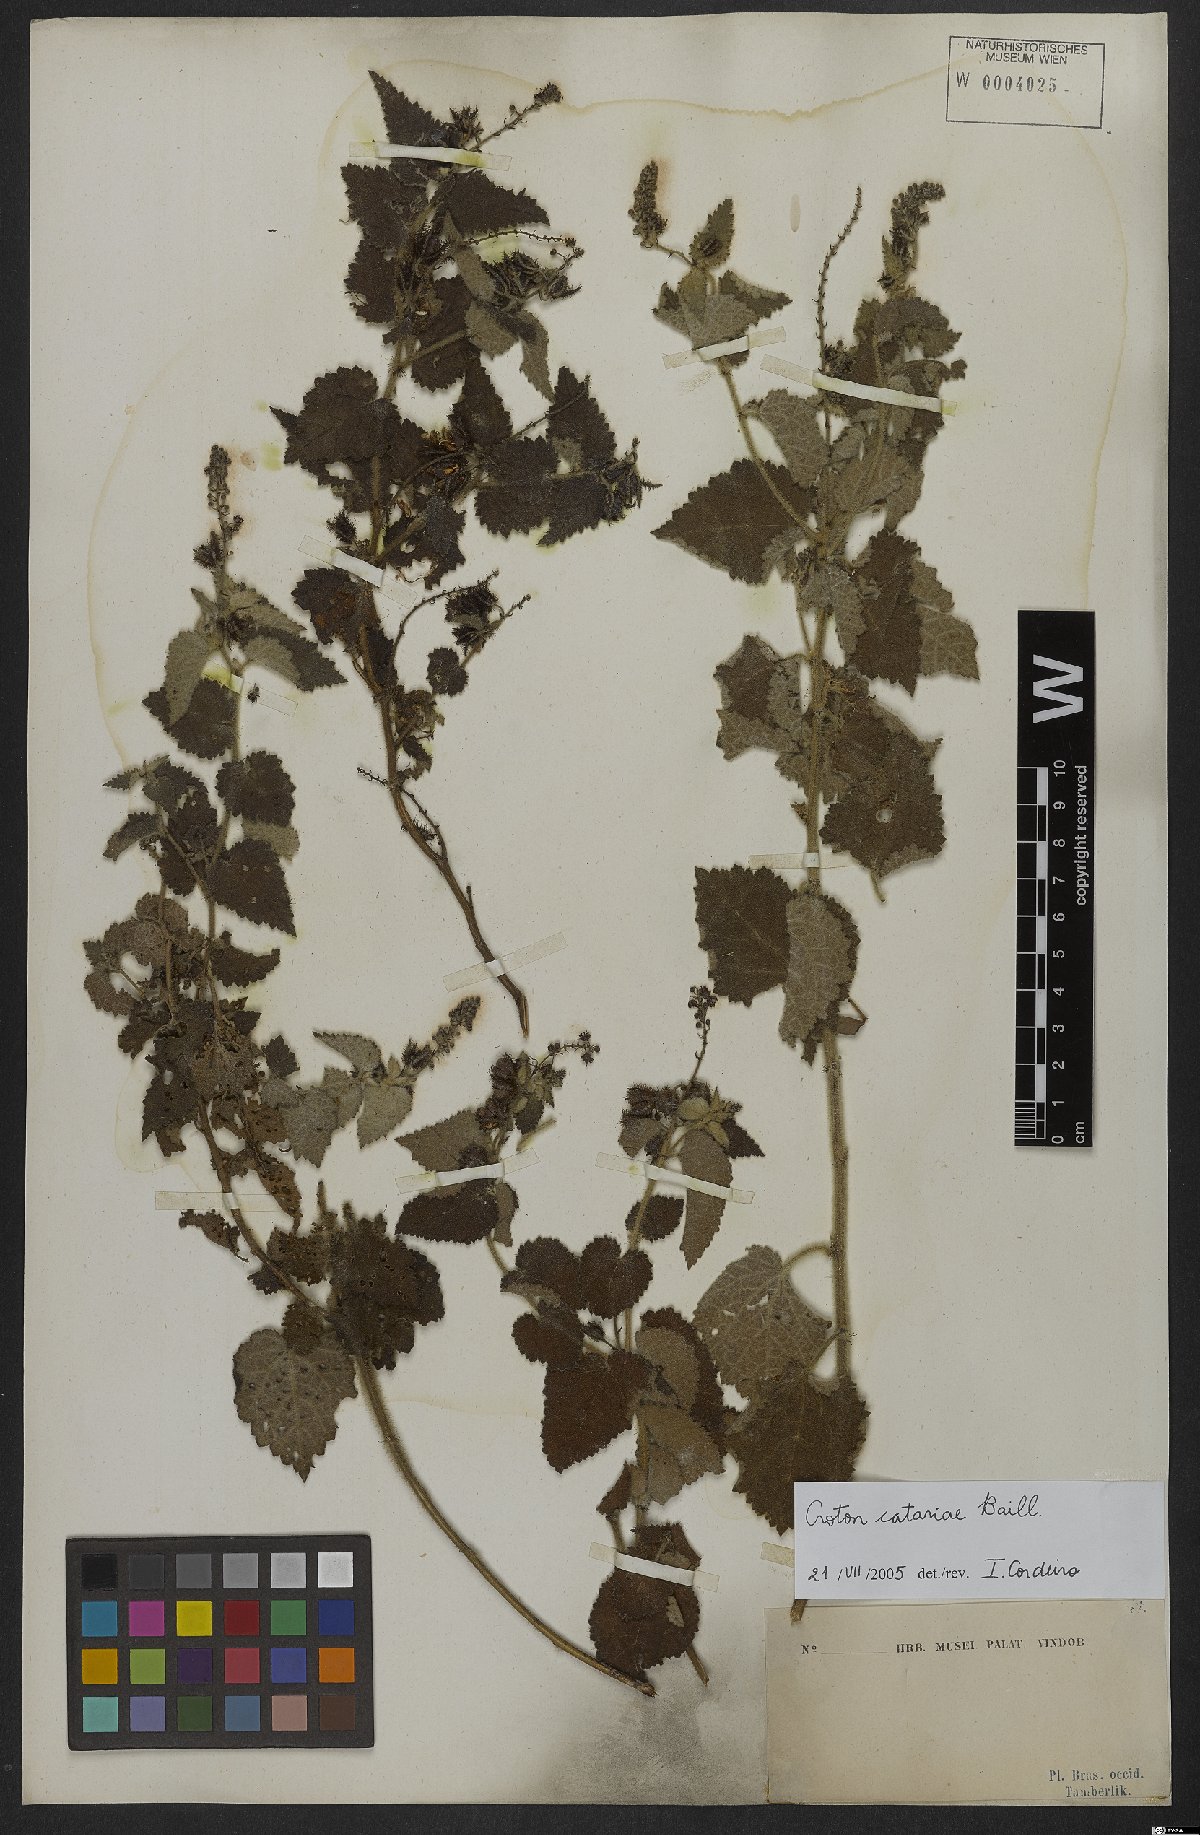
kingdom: Plantae
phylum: Tracheophyta
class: Magnoliopsida
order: Malpighiales
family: Euphorbiaceae
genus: Croton
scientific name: Croton catariae
